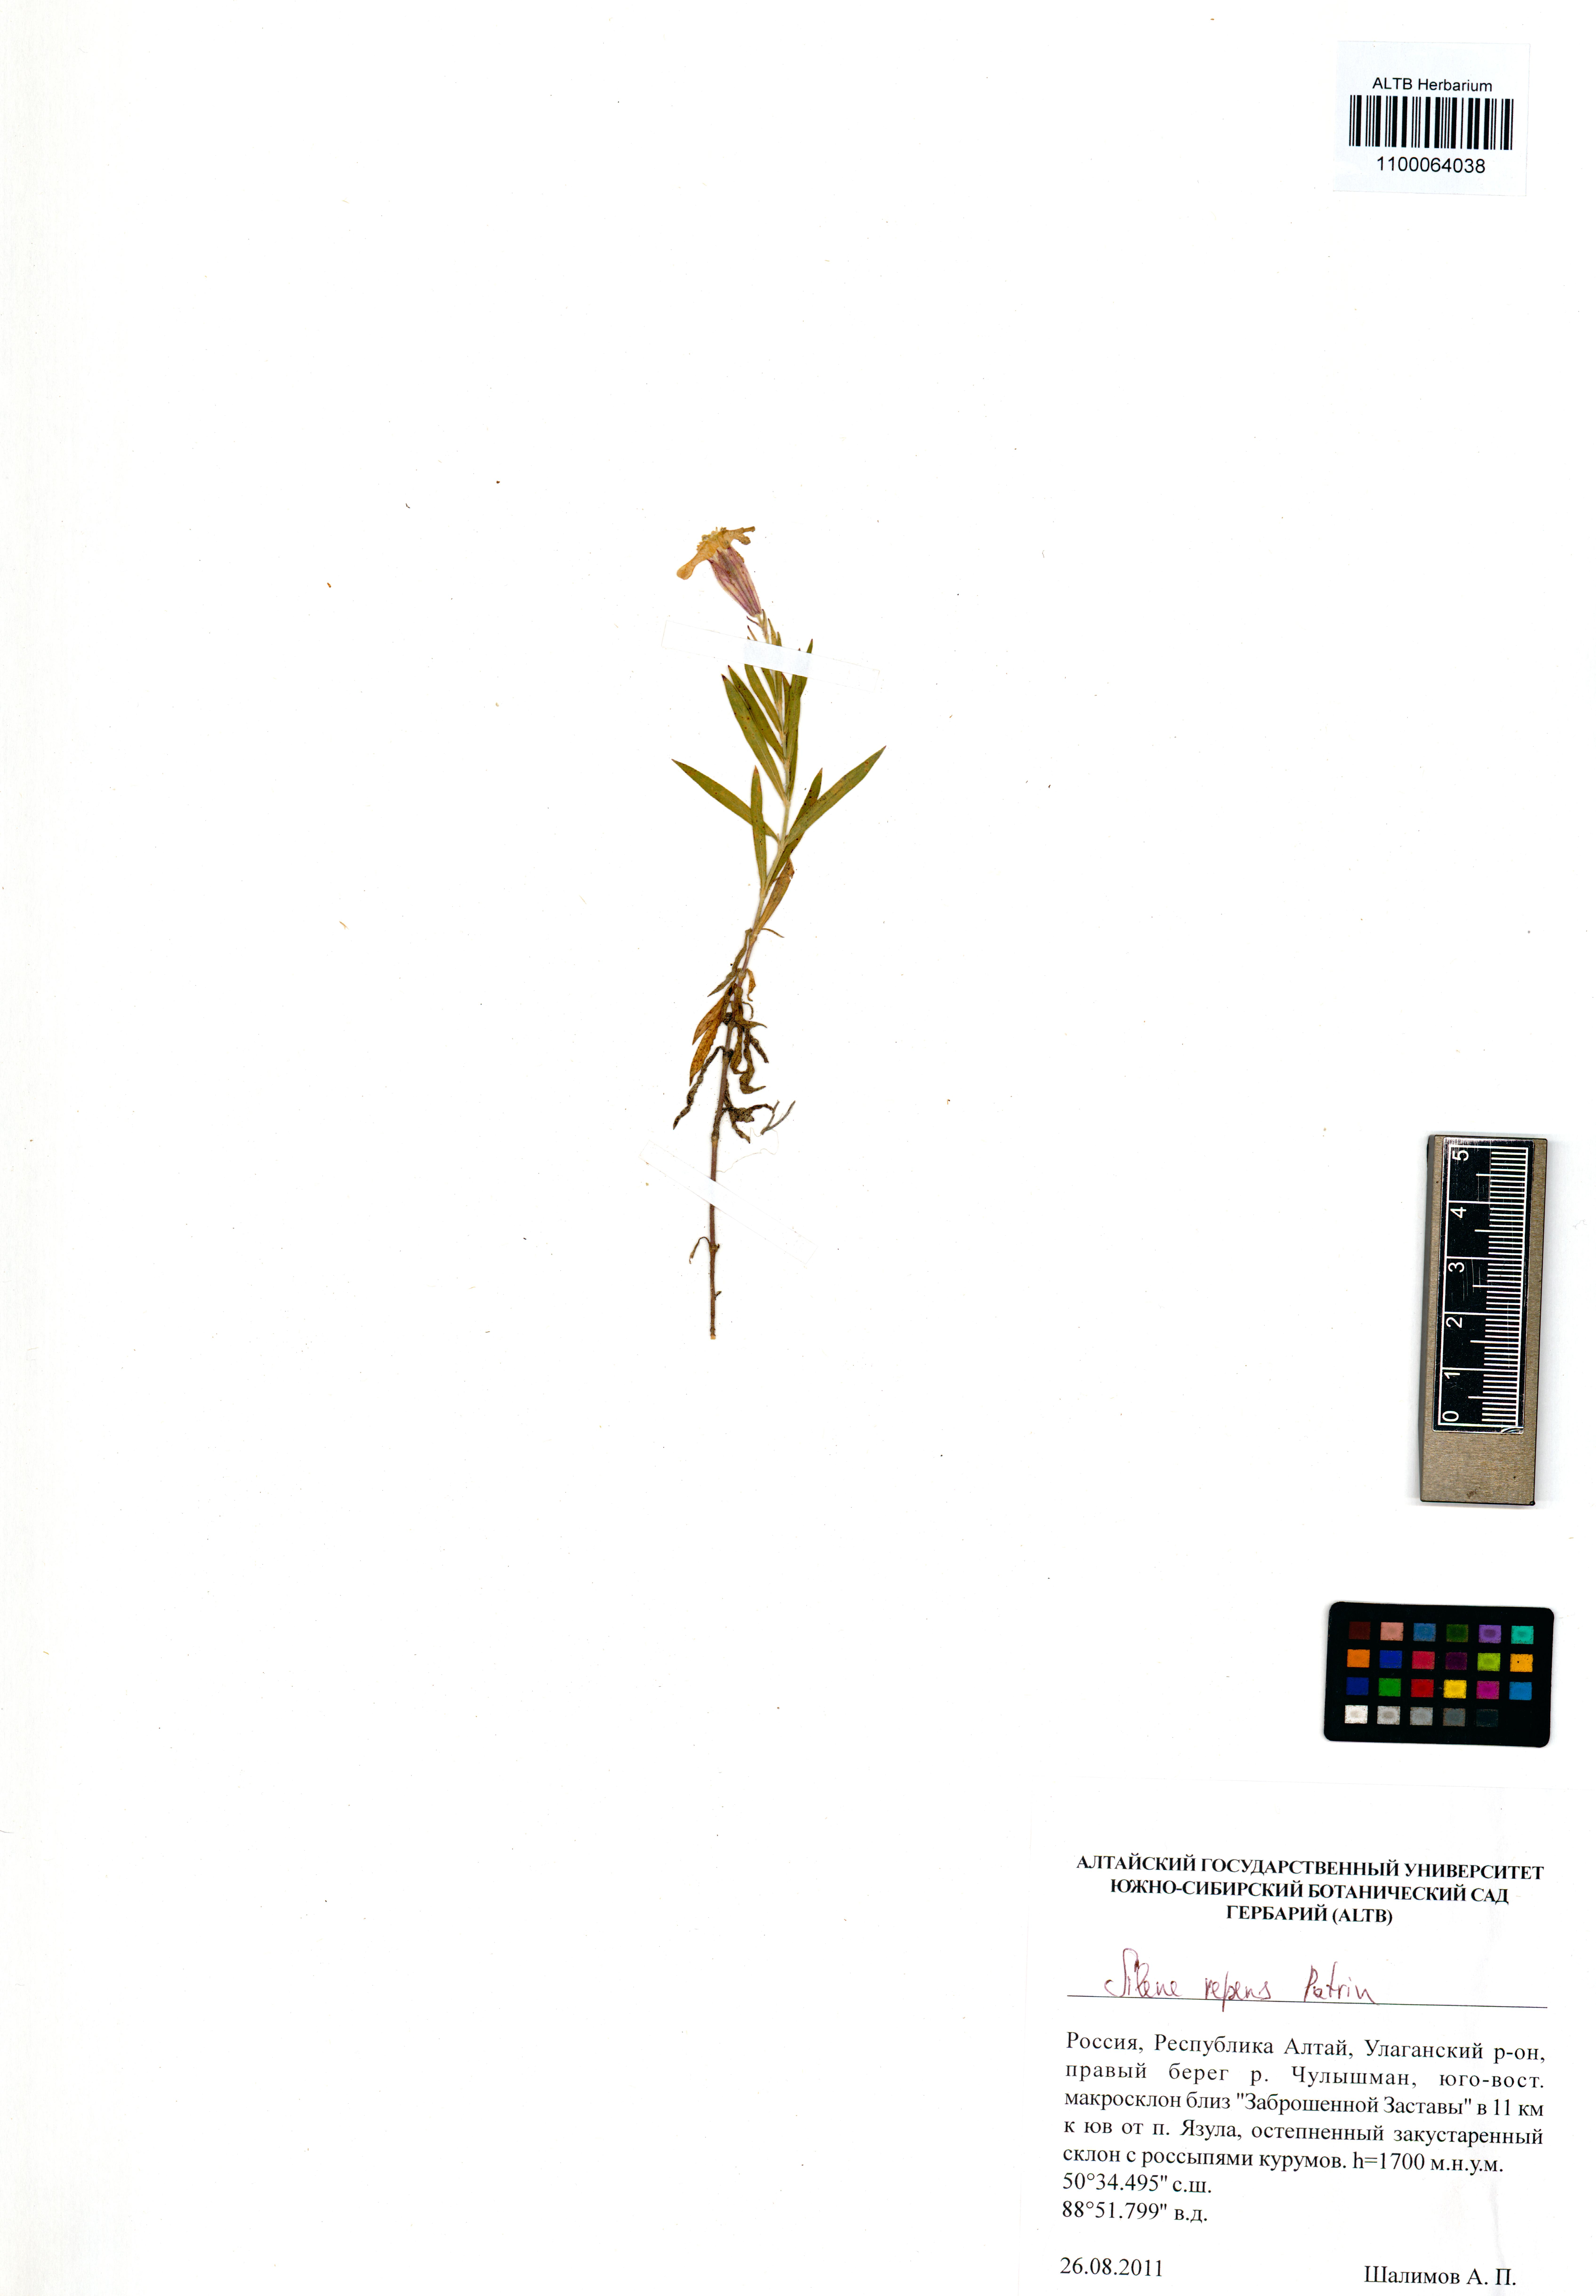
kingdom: Plantae
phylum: Tracheophyta
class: Magnoliopsida
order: Caryophyllales
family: Caryophyllaceae
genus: Silene
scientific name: Silene repens
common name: Pink campion
